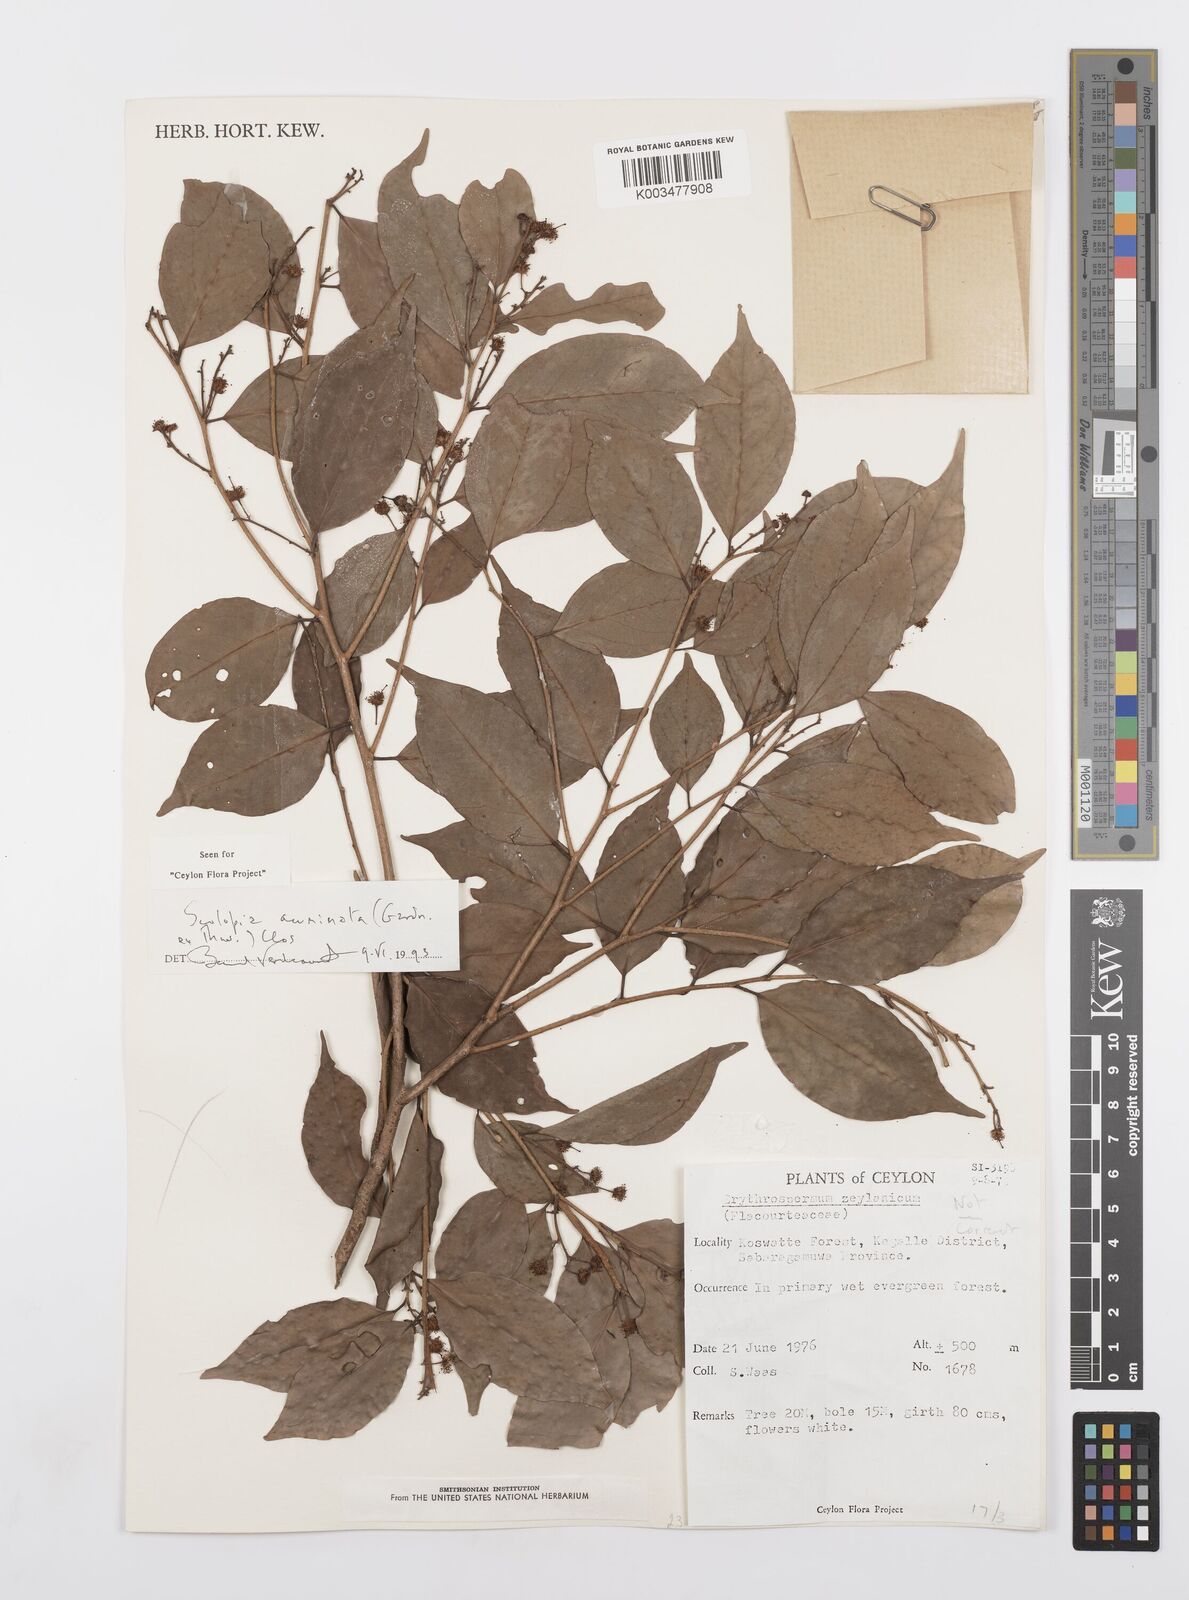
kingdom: Plantae
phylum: Tracheophyta
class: Magnoliopsida
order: Malpighiales
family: Salicaceae
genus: Scolopia
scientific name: Scolopia acuminata
